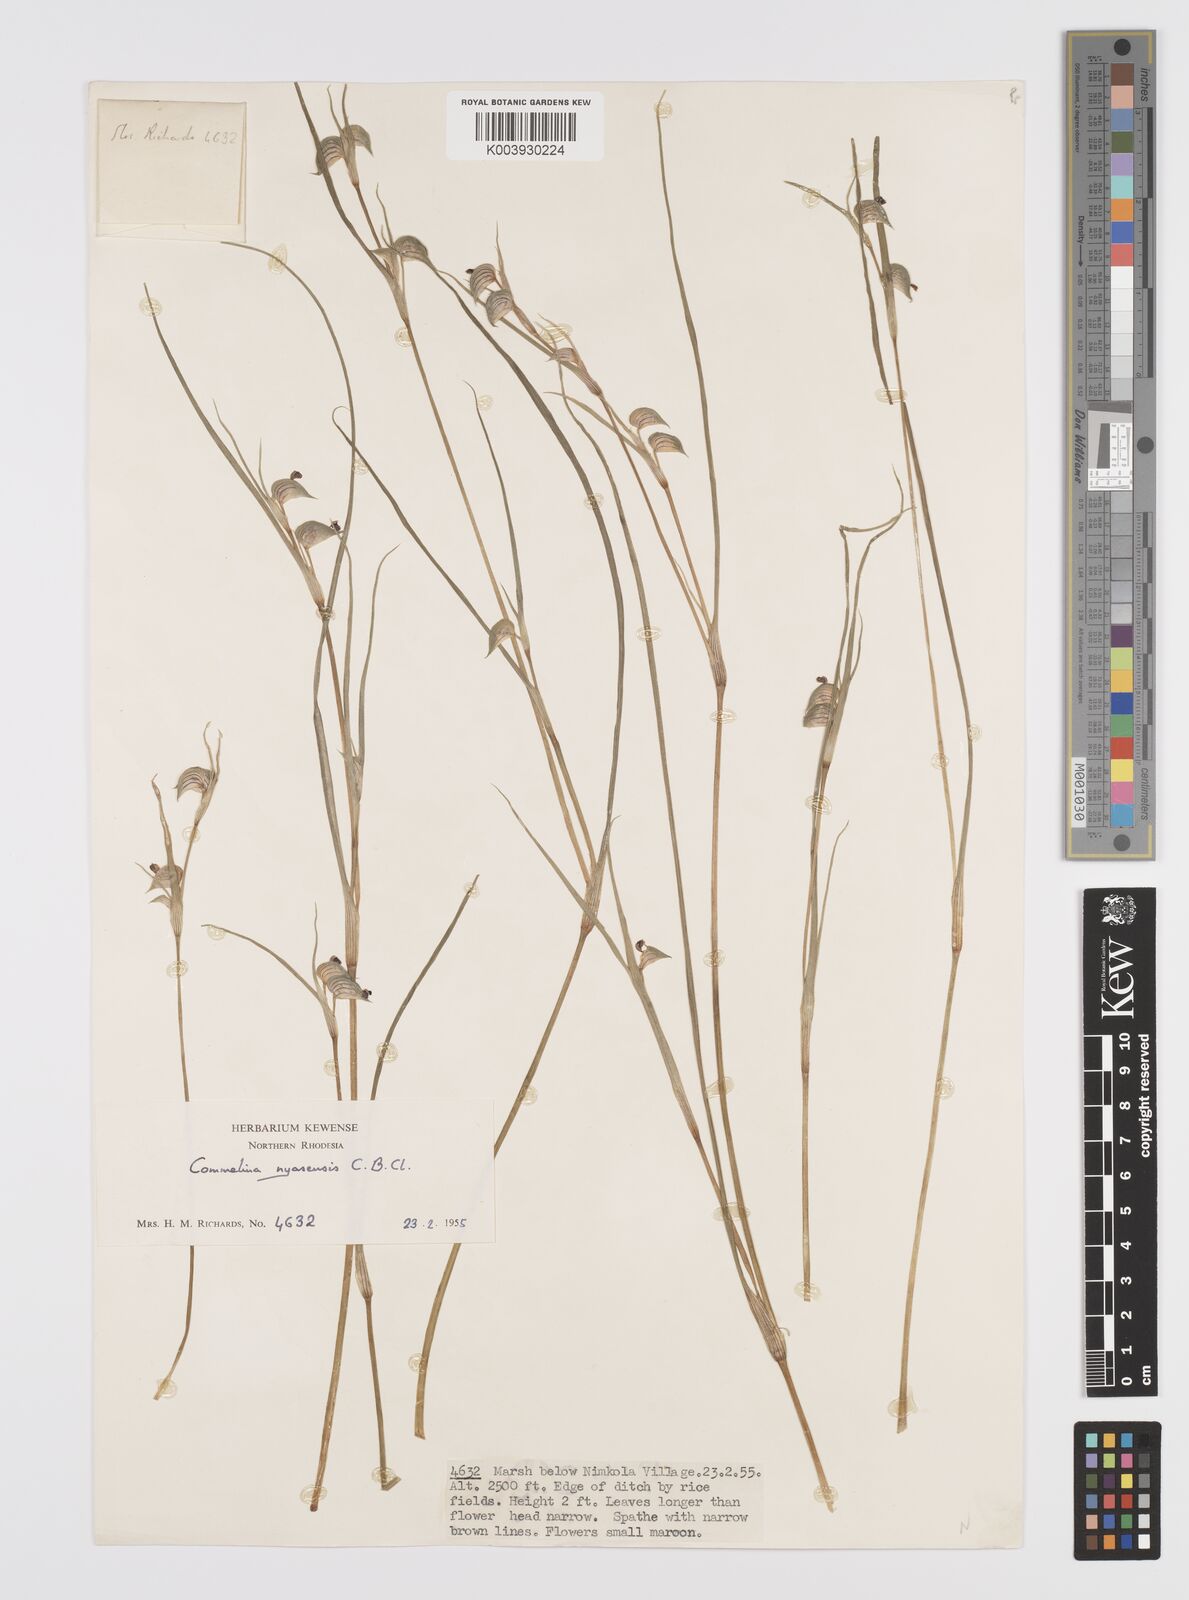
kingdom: Plantae
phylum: Tracheophyta
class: Liliopsida
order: Commelinales
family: Commelinaceae
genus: Commelina
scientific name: Commelina nyasensis
